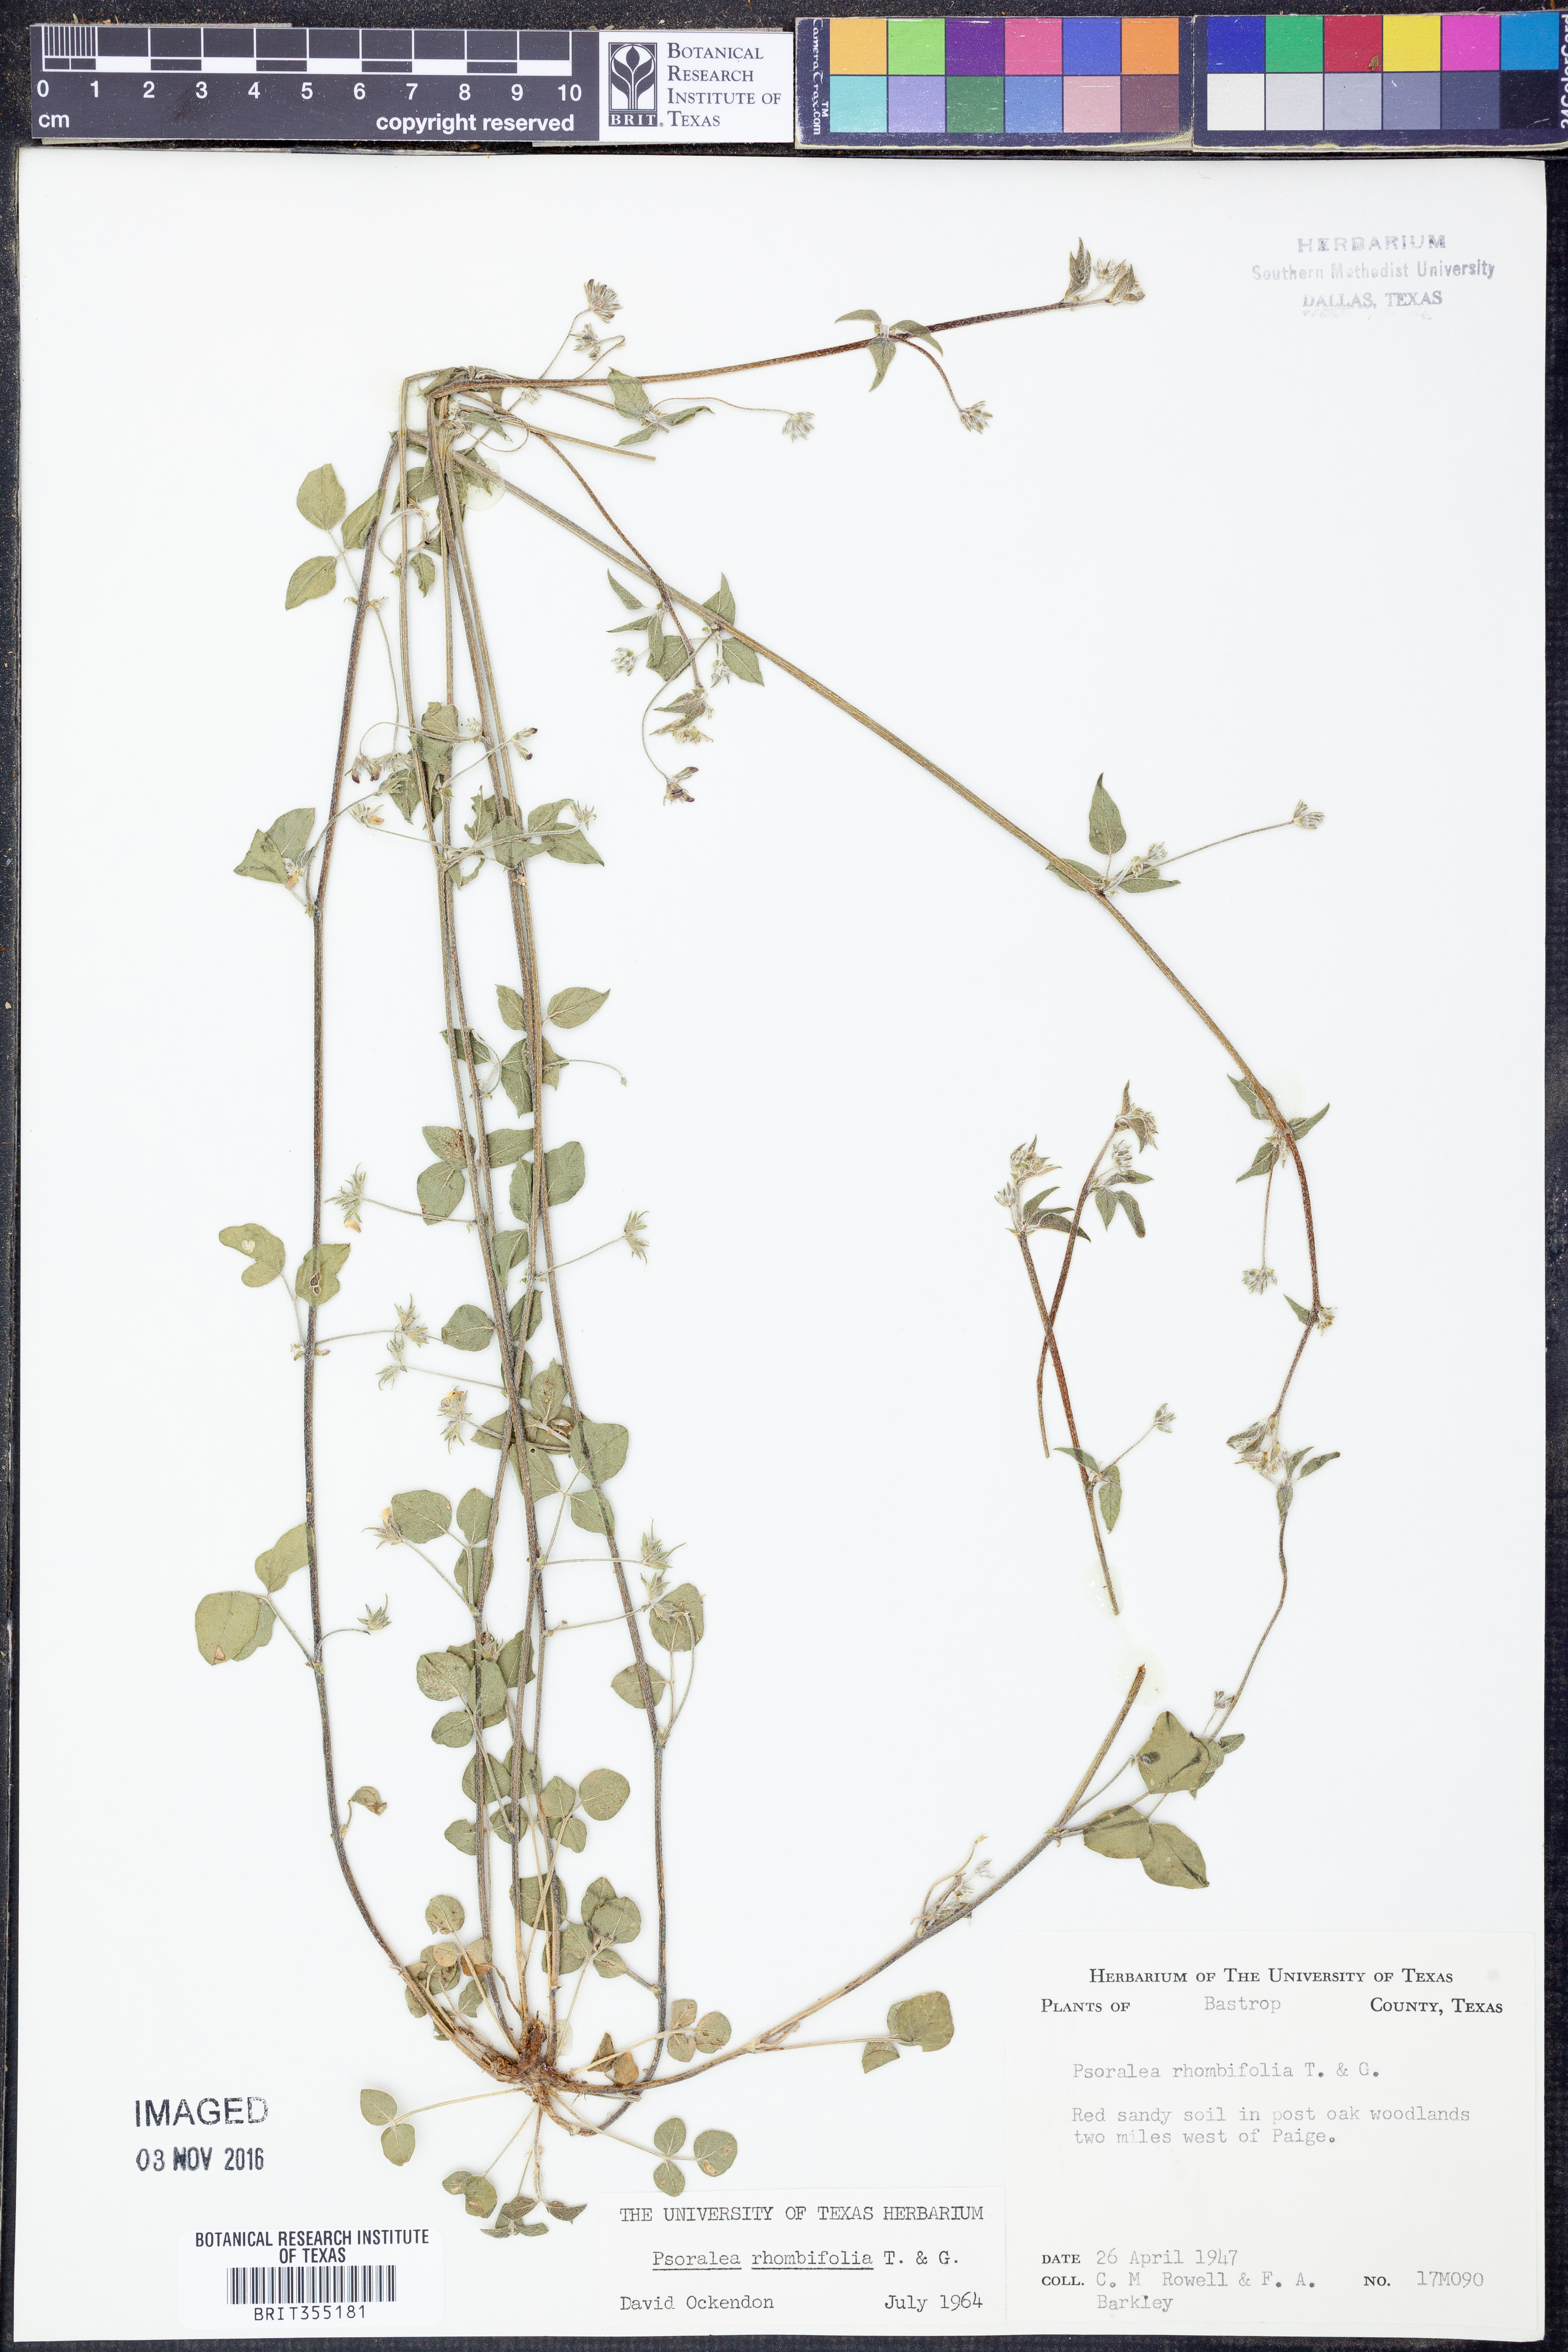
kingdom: Plantae
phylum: Tracheophyta
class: Magnoliopsida
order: Fabales
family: Fabaceae
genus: Pediomelum
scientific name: Pediomelum rhombifolium
